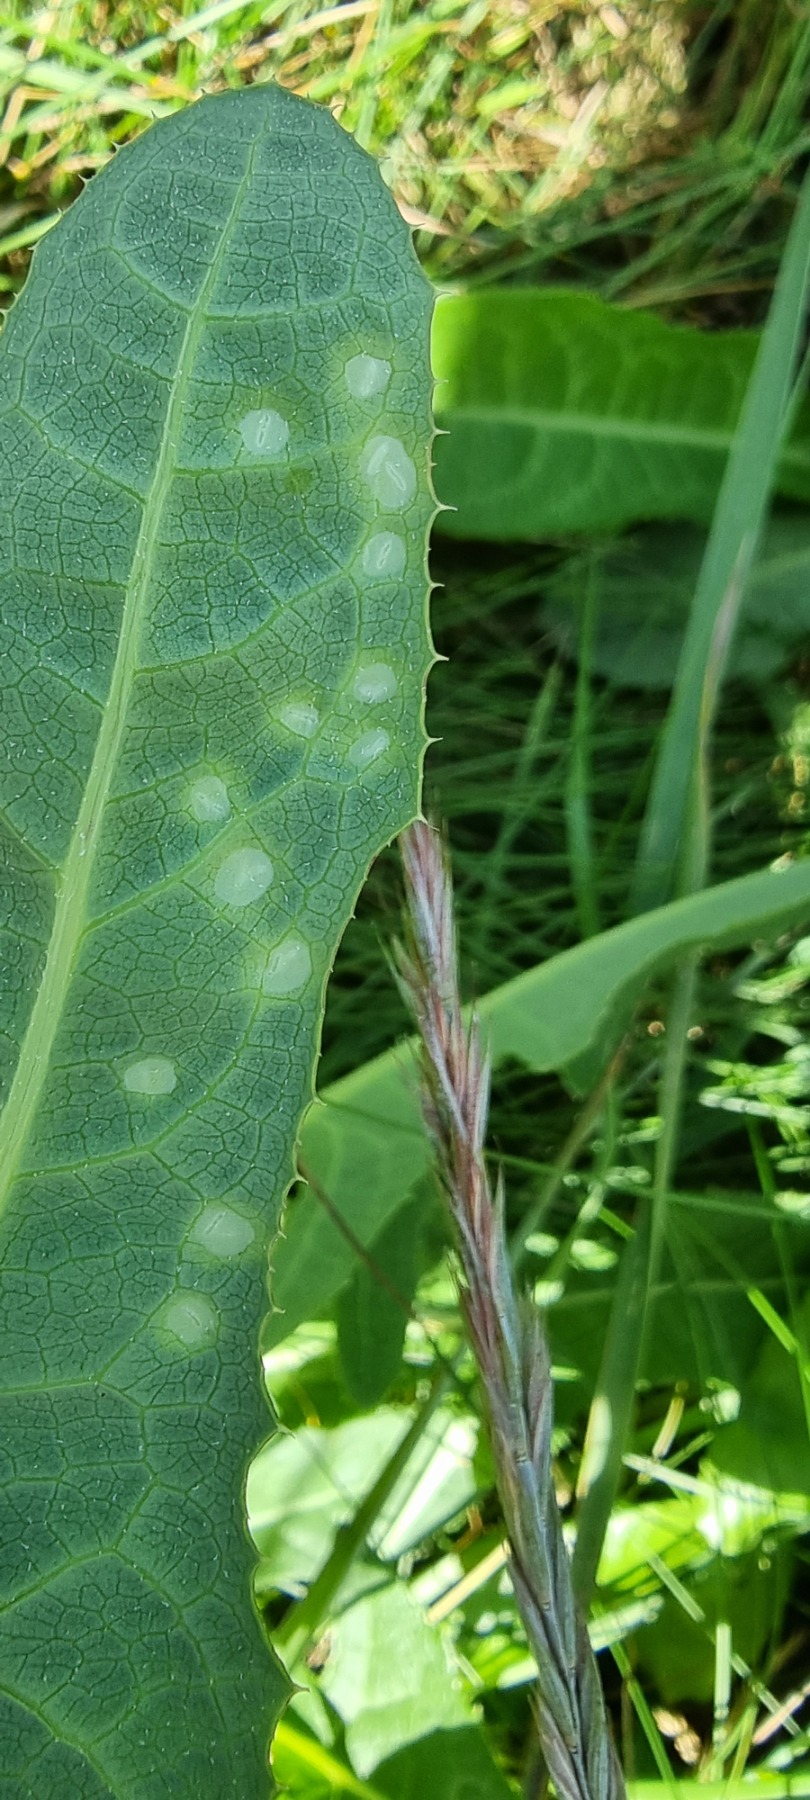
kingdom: Animalia
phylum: Arthropoda
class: Insecta
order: Diptera
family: Cecidomyiidae
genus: Cystiphora
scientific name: Cystiphora sonchi
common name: Svineblæregalmyg
